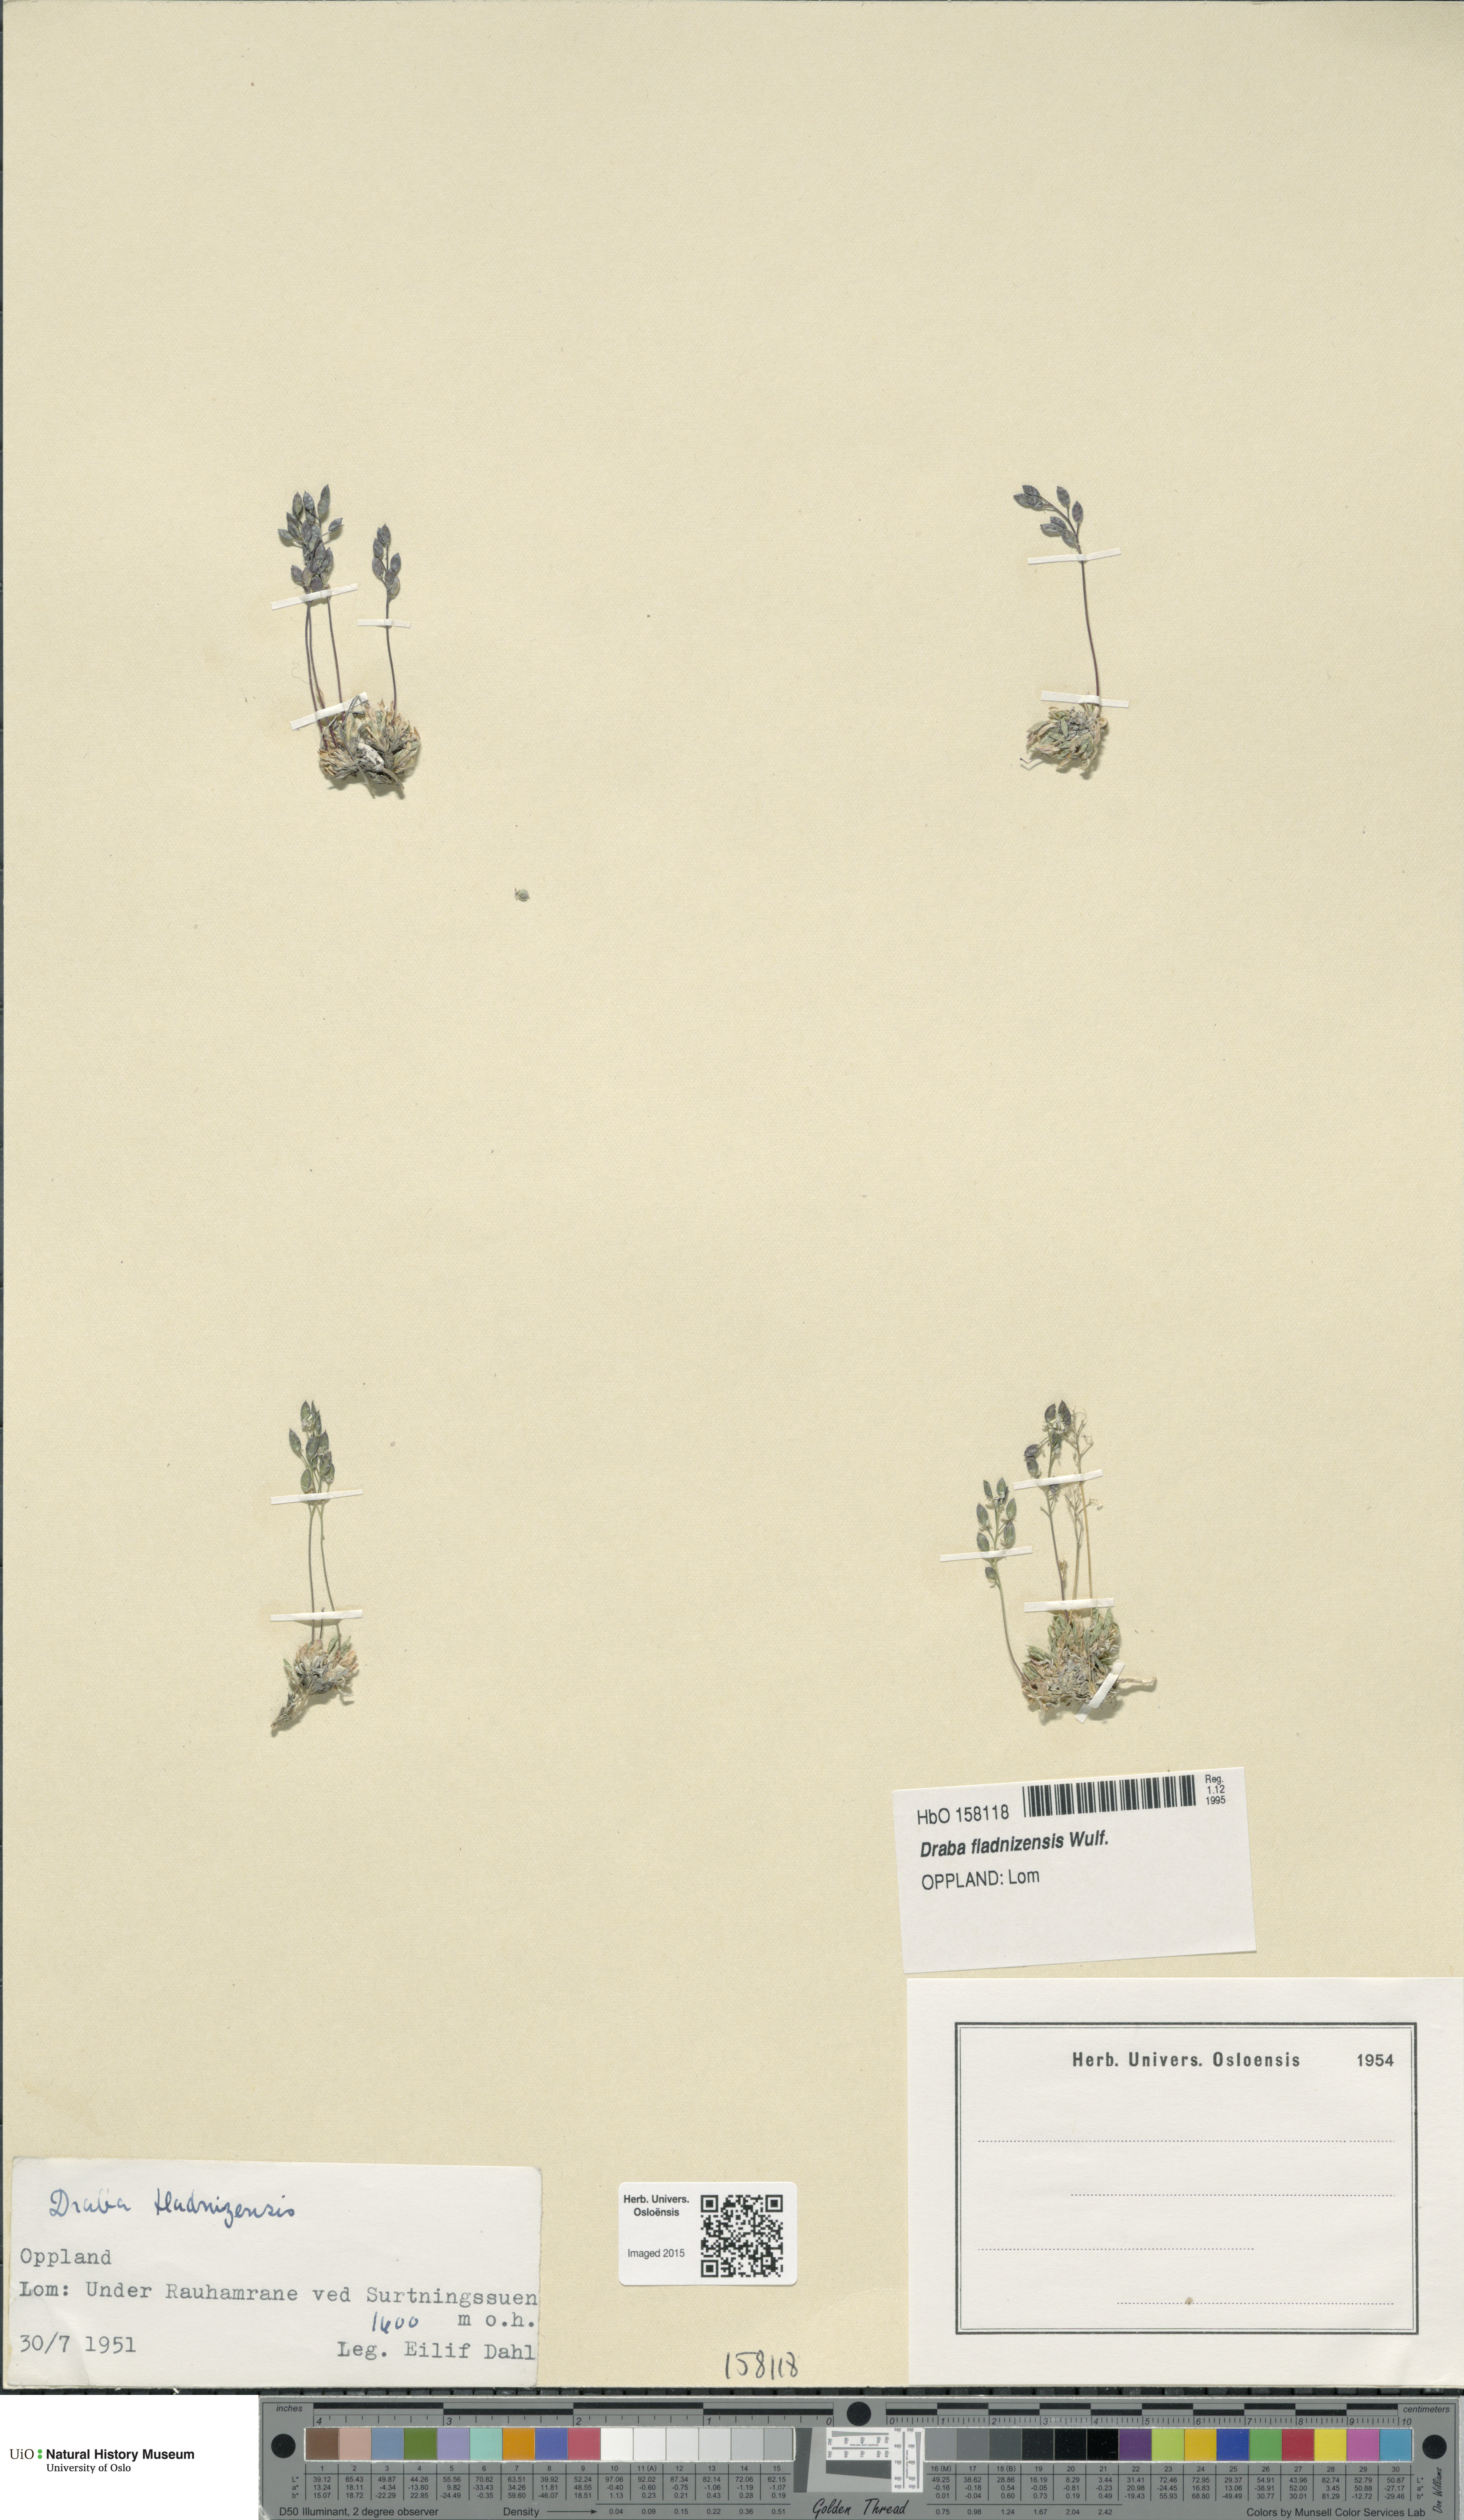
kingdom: Plantae
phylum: Tracheophyta
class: Magnoliopsida
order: Brassicales
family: Brassicaceae
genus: Draba
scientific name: Draba fladnizensis
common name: Austrian draba
